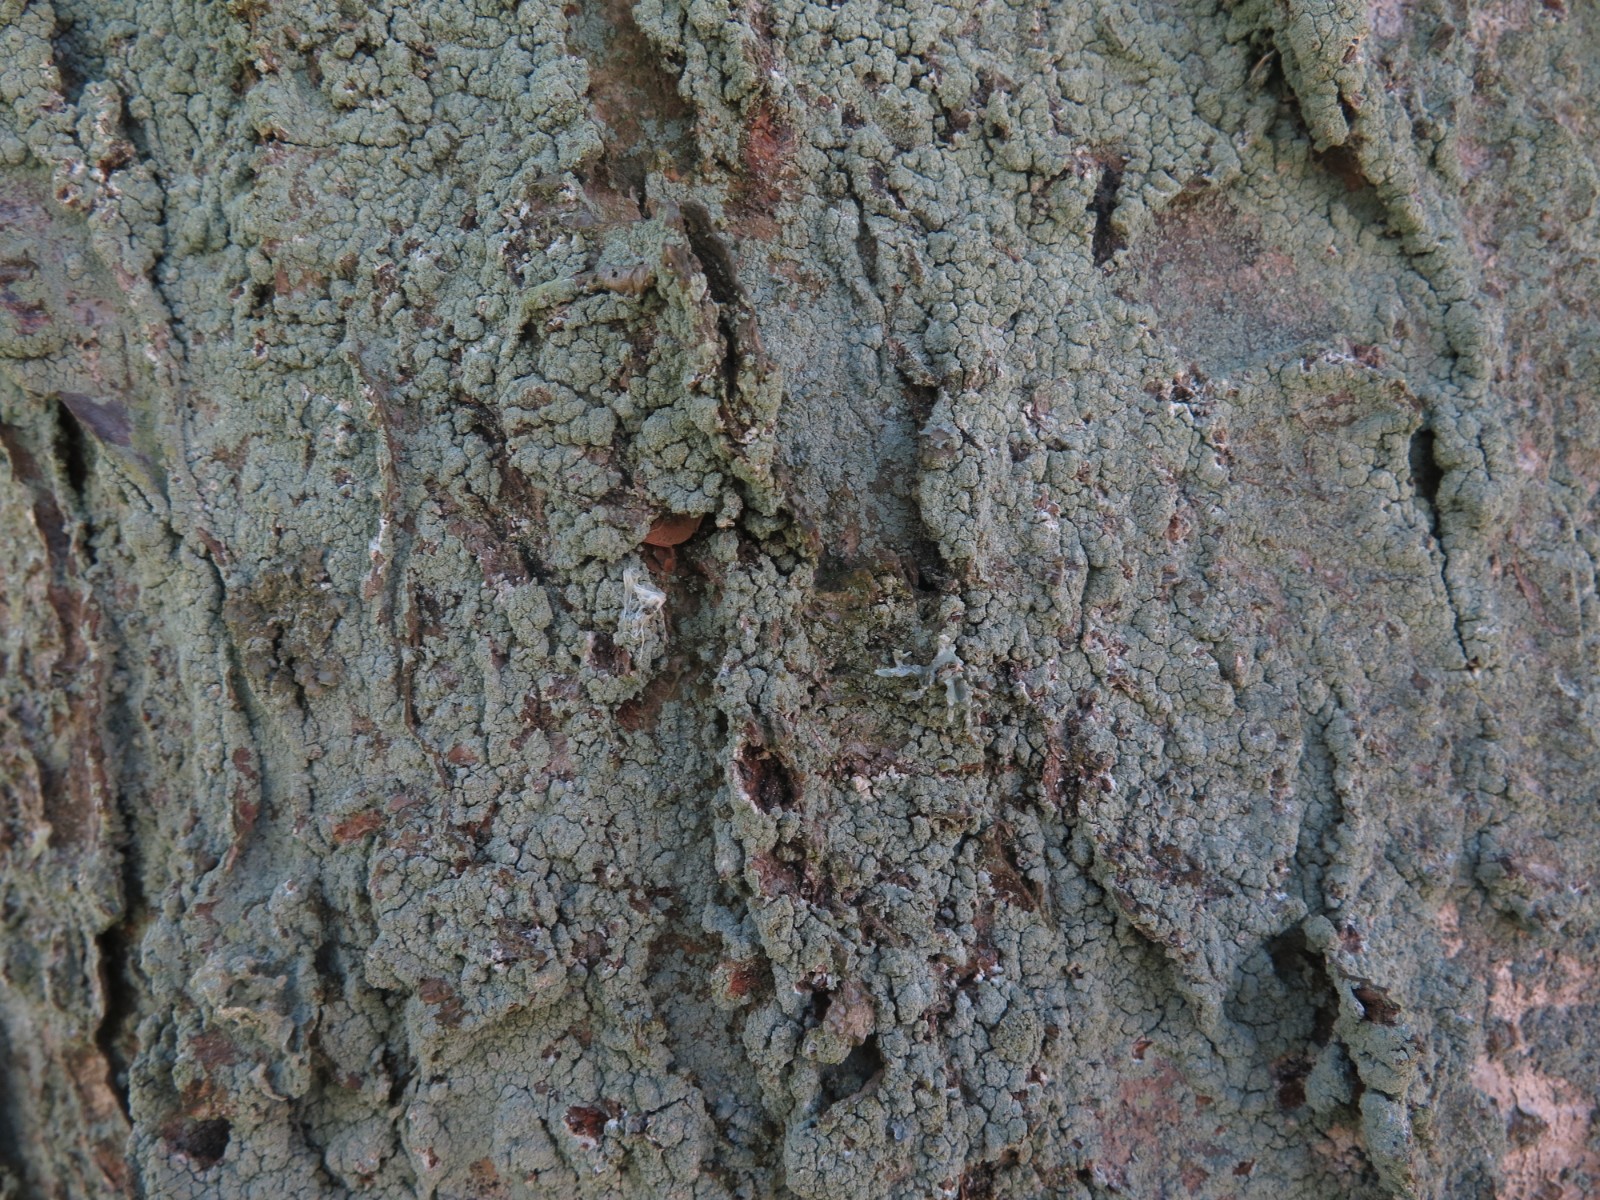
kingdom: Fungi
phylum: Ascomycota
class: Lecanoromycetes
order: Lecanorales
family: Stereocaulaceae
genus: Lepraria
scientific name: Lepraria incana
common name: almindelig støvlav
